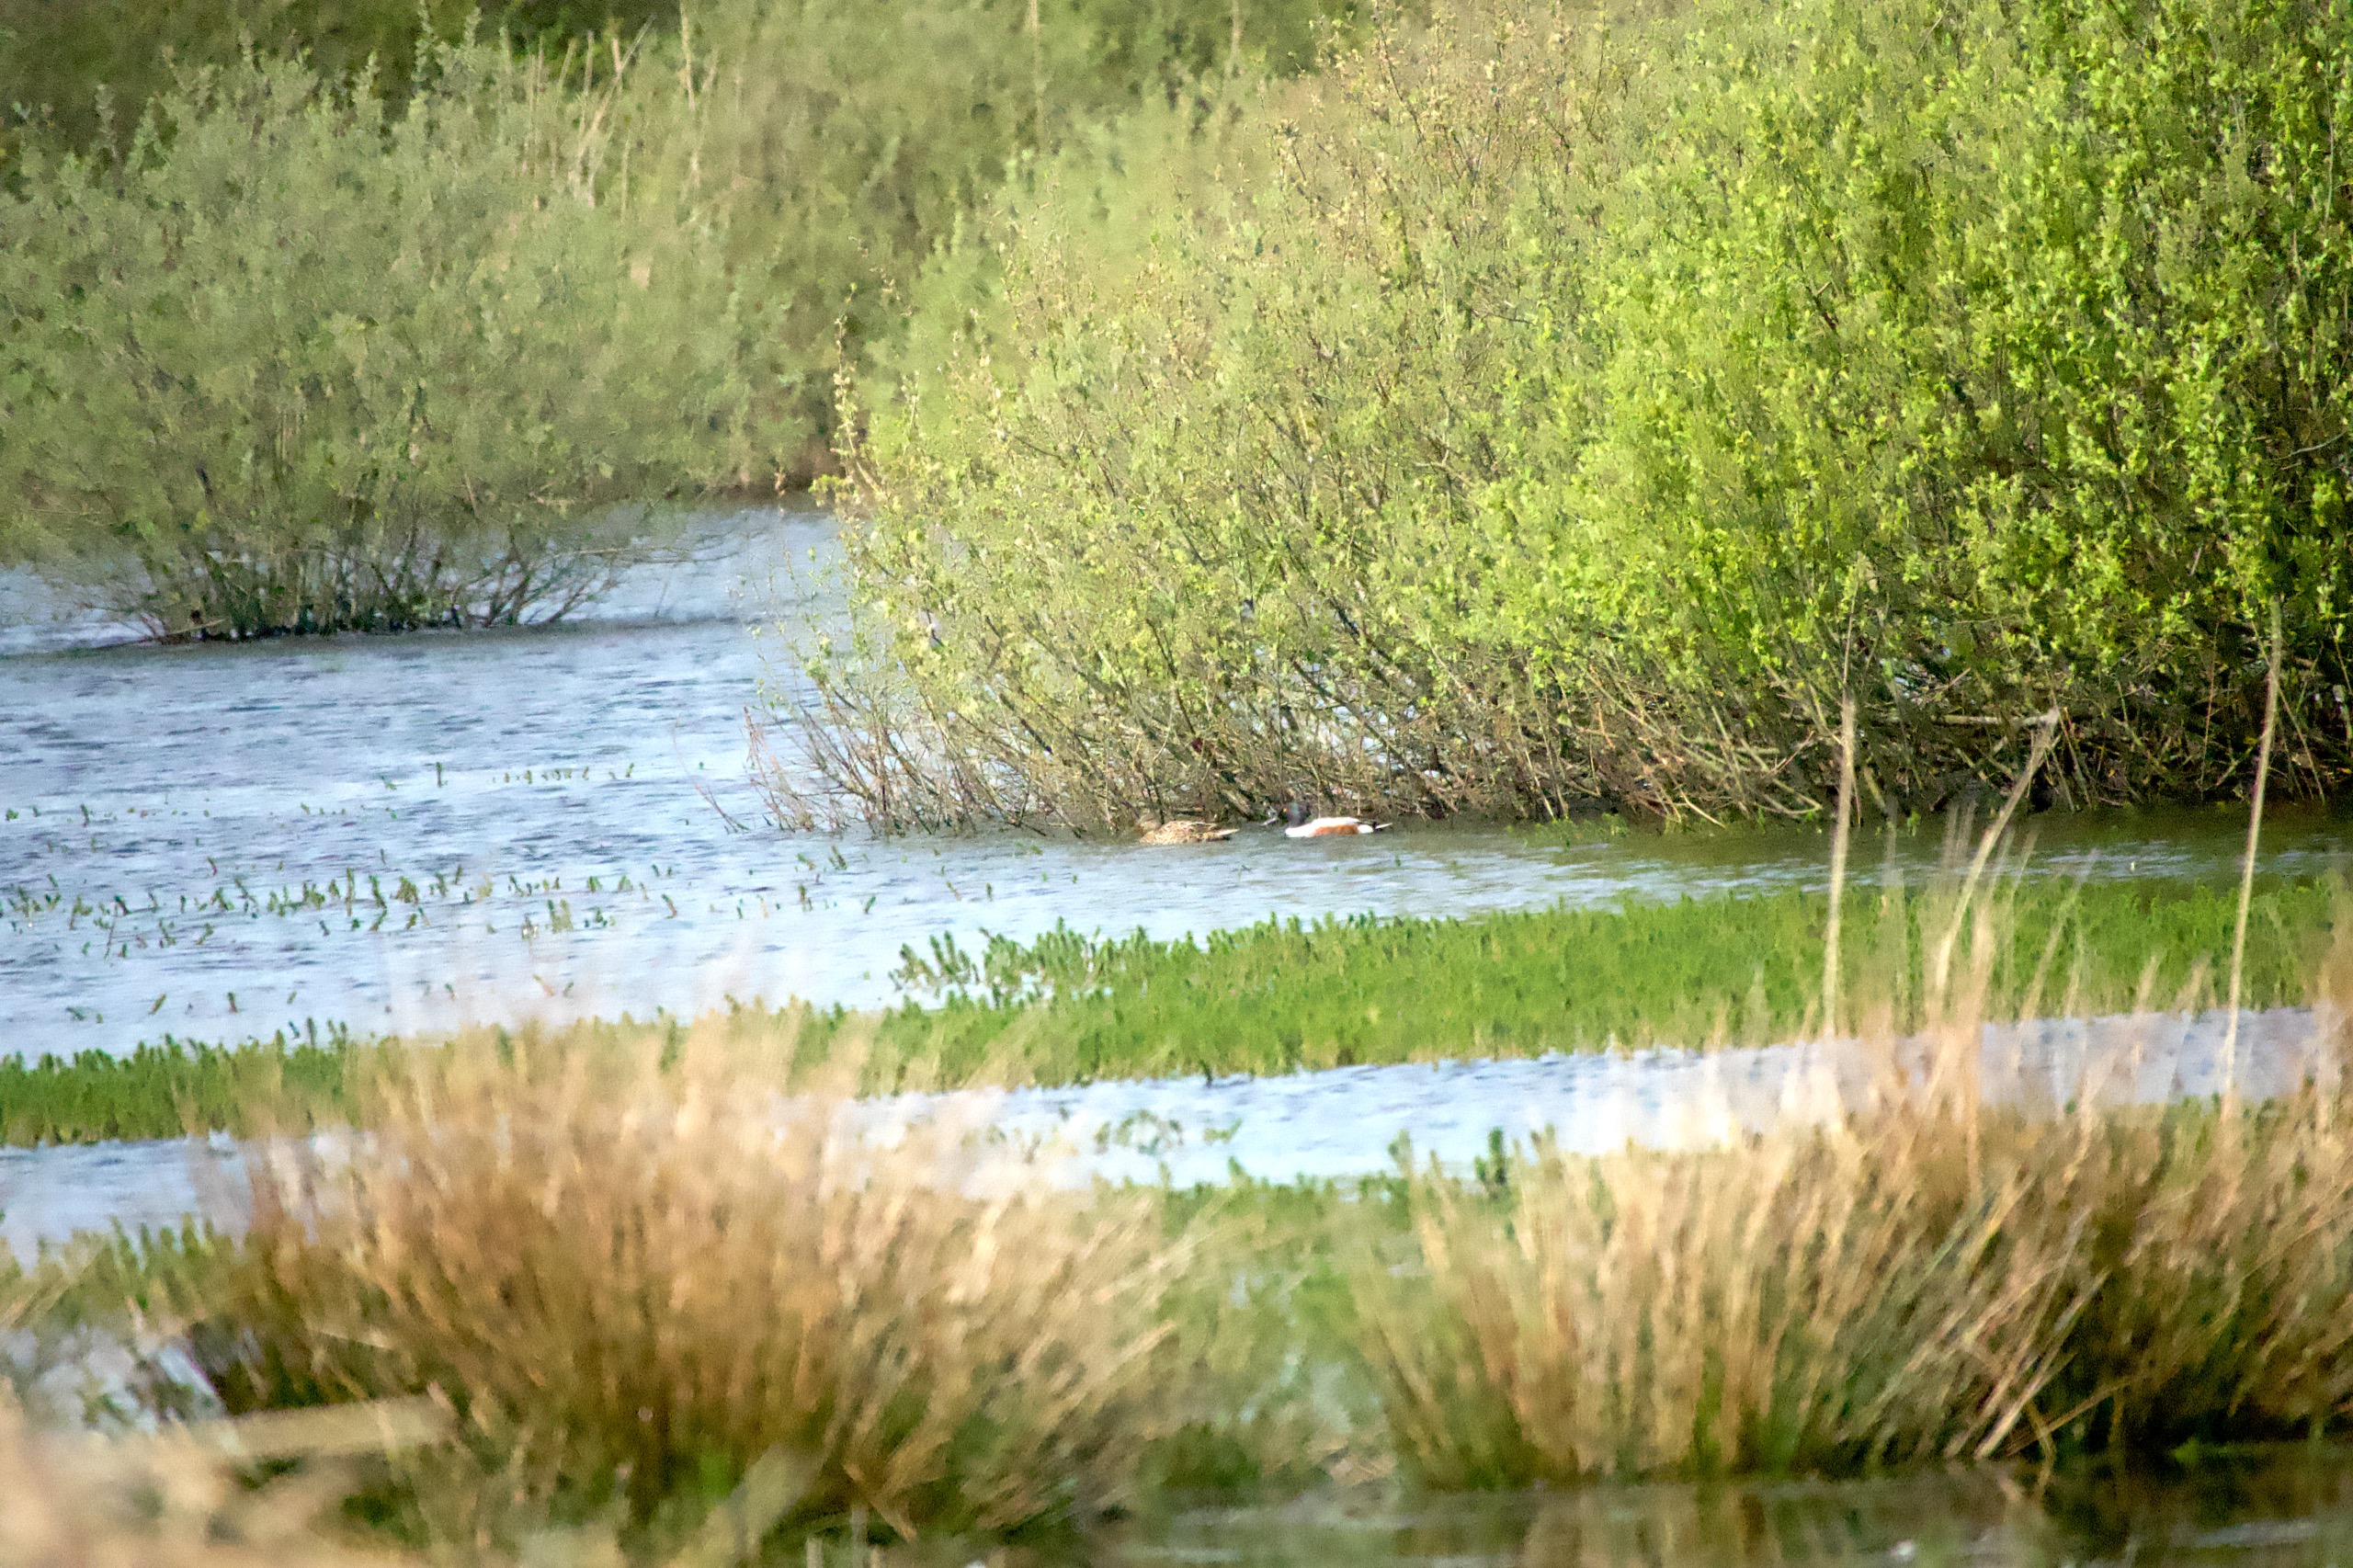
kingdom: Animalia
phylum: Chordata
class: Aves
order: Anseriformes
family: Anatidae
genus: Spatula
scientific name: Spatula clypeata
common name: Skeand
